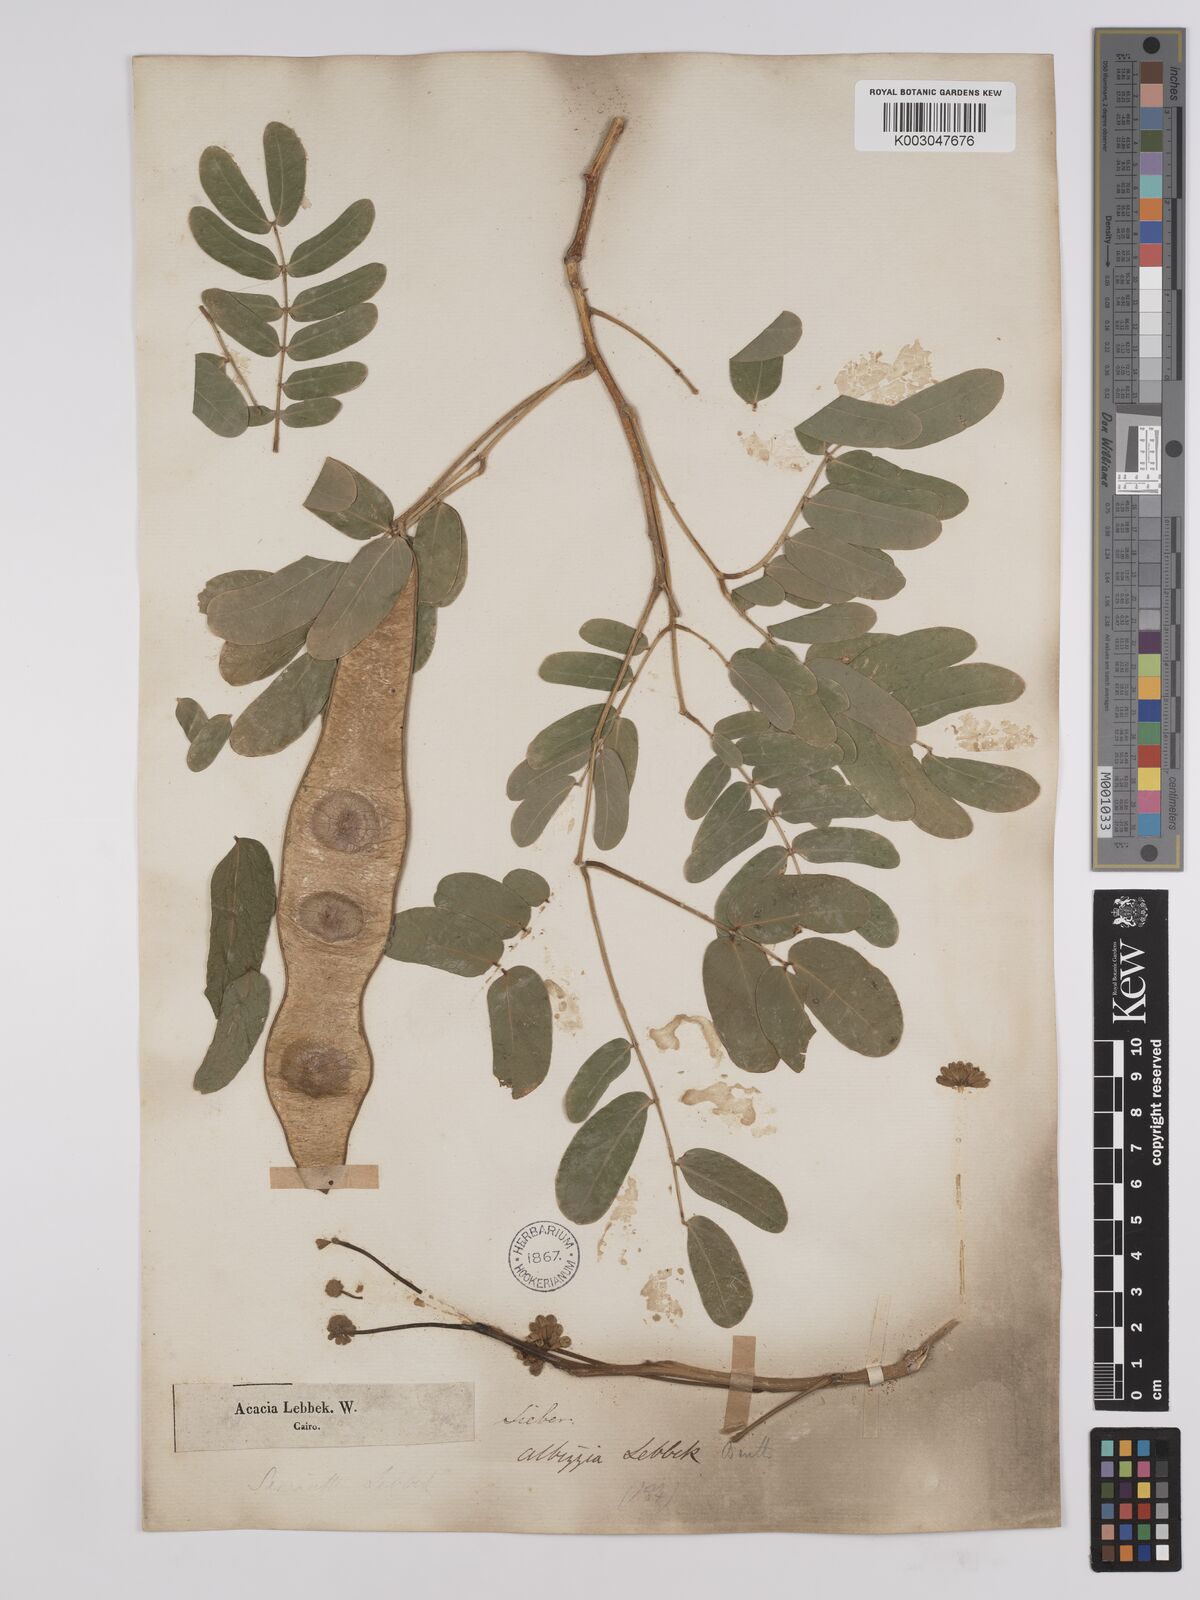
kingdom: Plantae
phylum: Tracheophyta
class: Magnoliopsida
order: Fabales
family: Fabaceae
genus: Albizia
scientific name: Albizia lebbeck
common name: Woman's tongue
